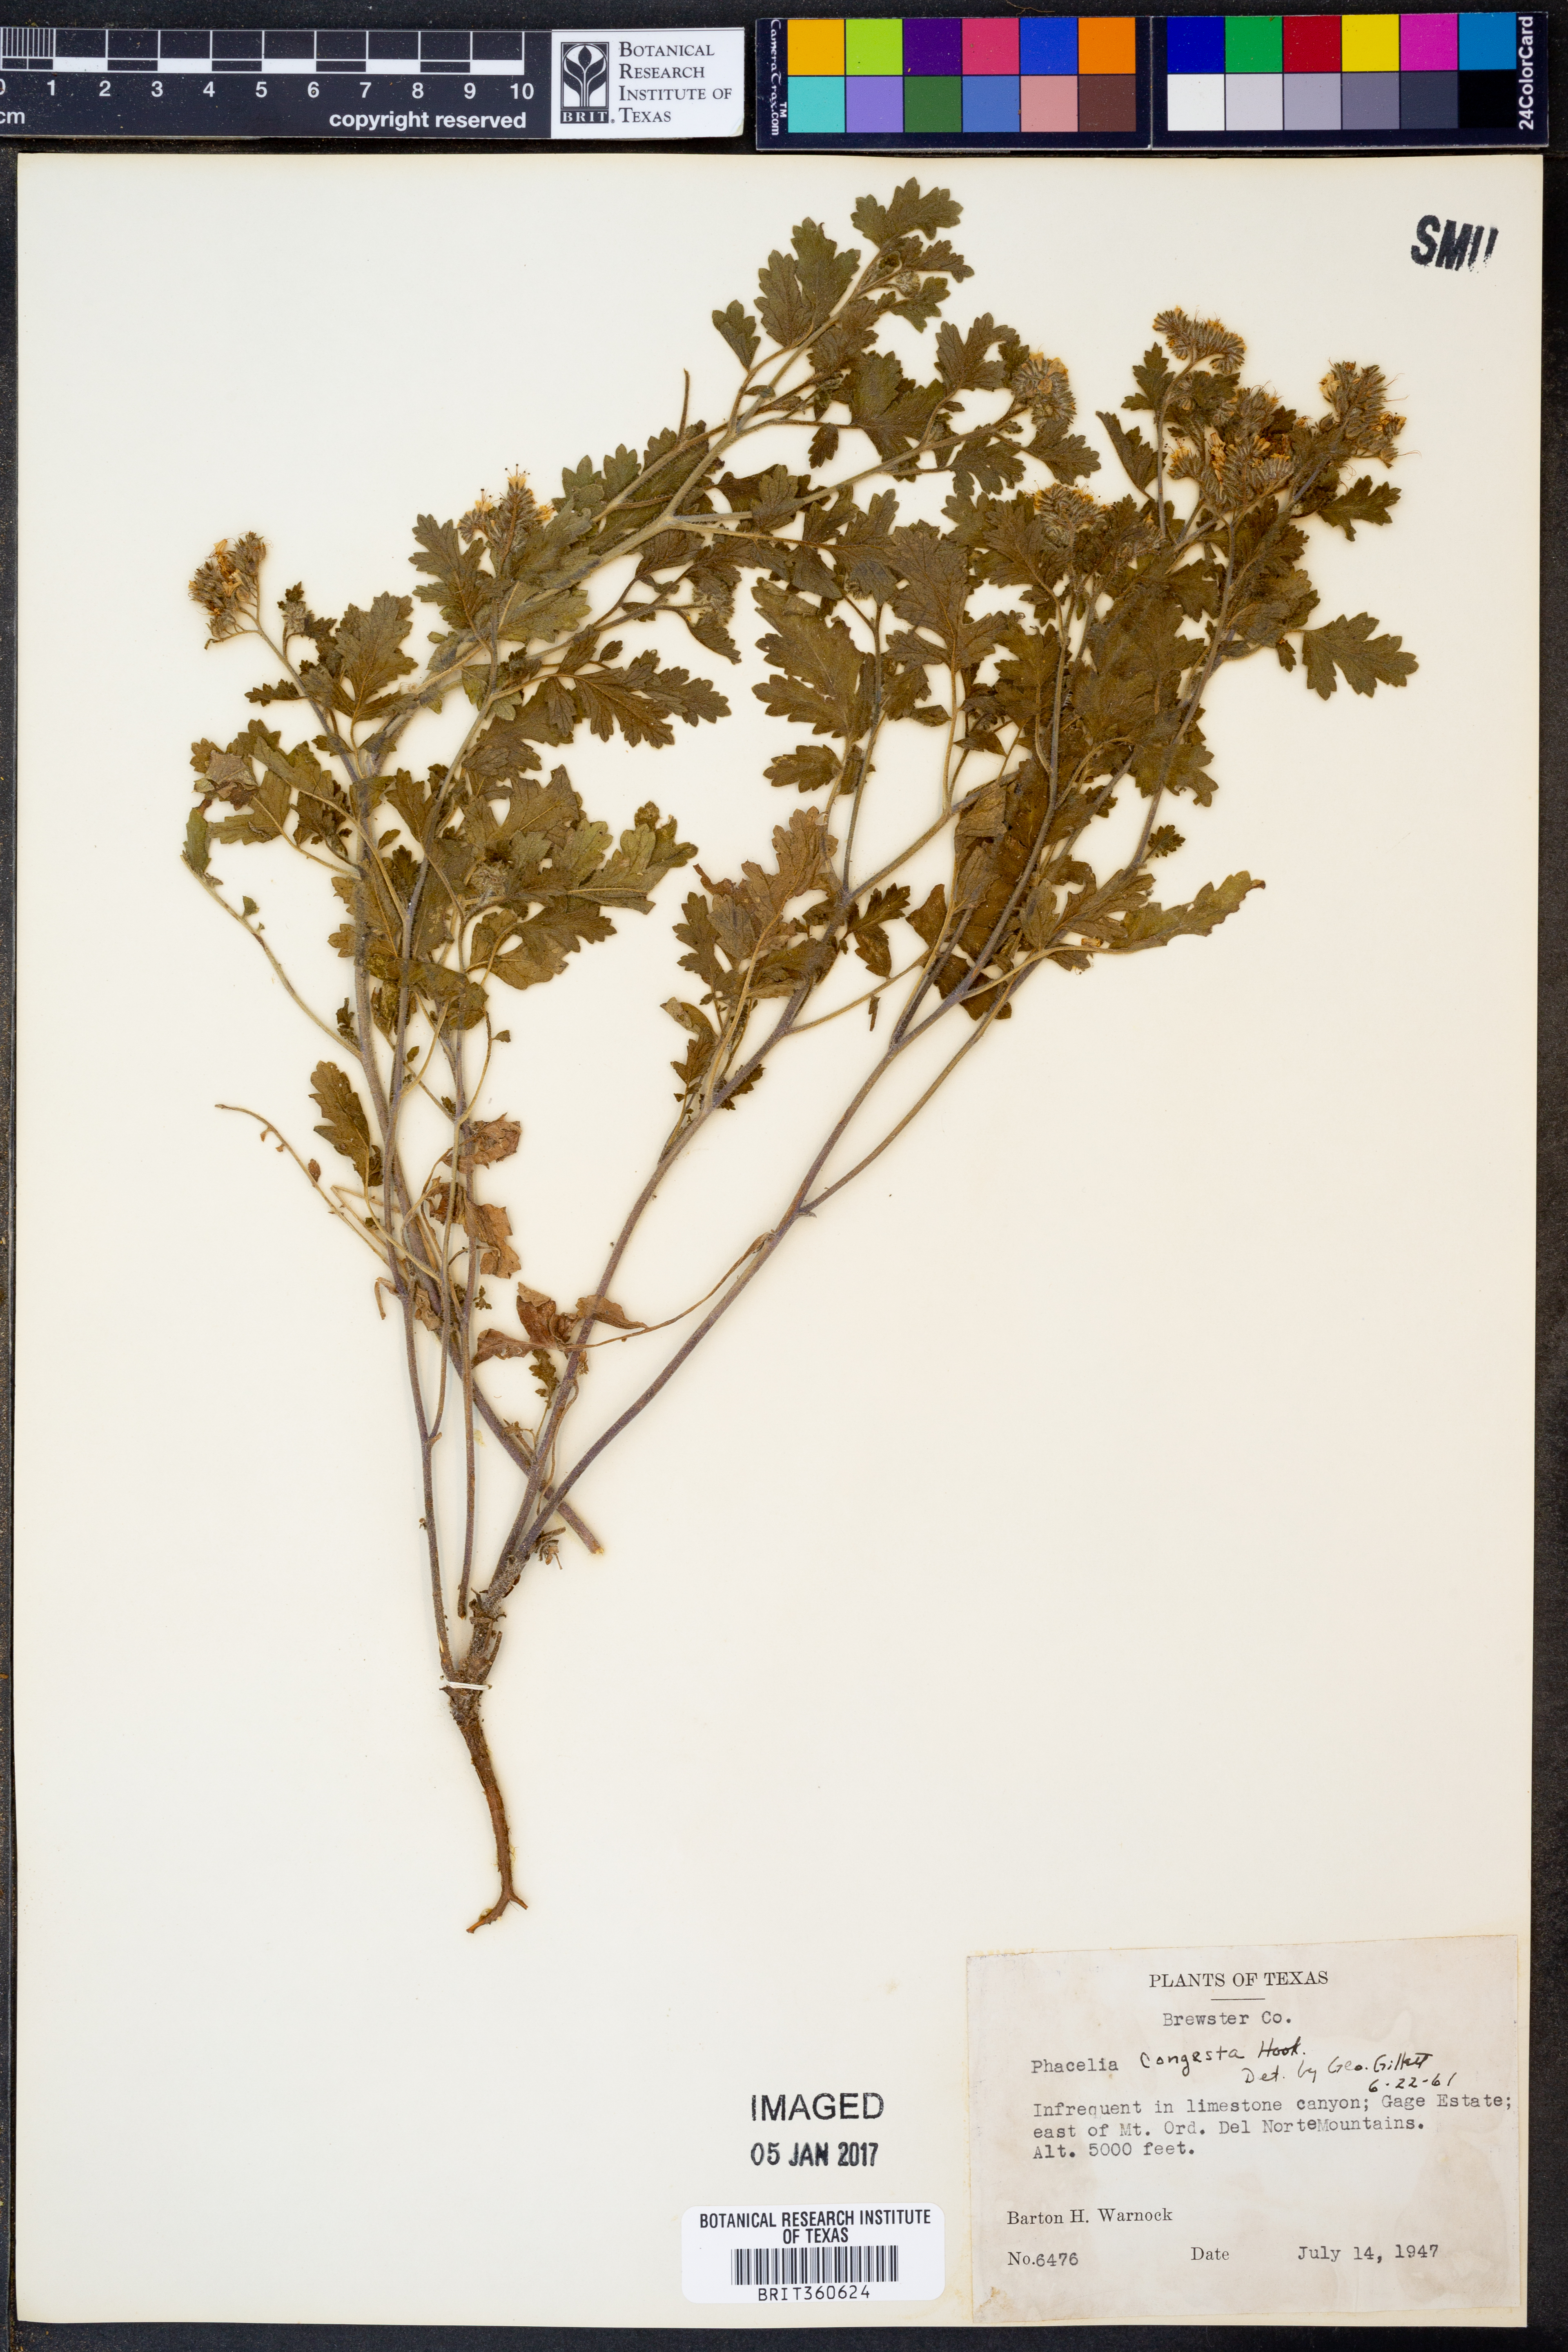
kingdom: Plantae
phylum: Tracheophyta
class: Magnoliopsida
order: Boraginales
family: Hydrophyllaceae
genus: Phacelia
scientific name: Phacelia congesta
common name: Blue curls
